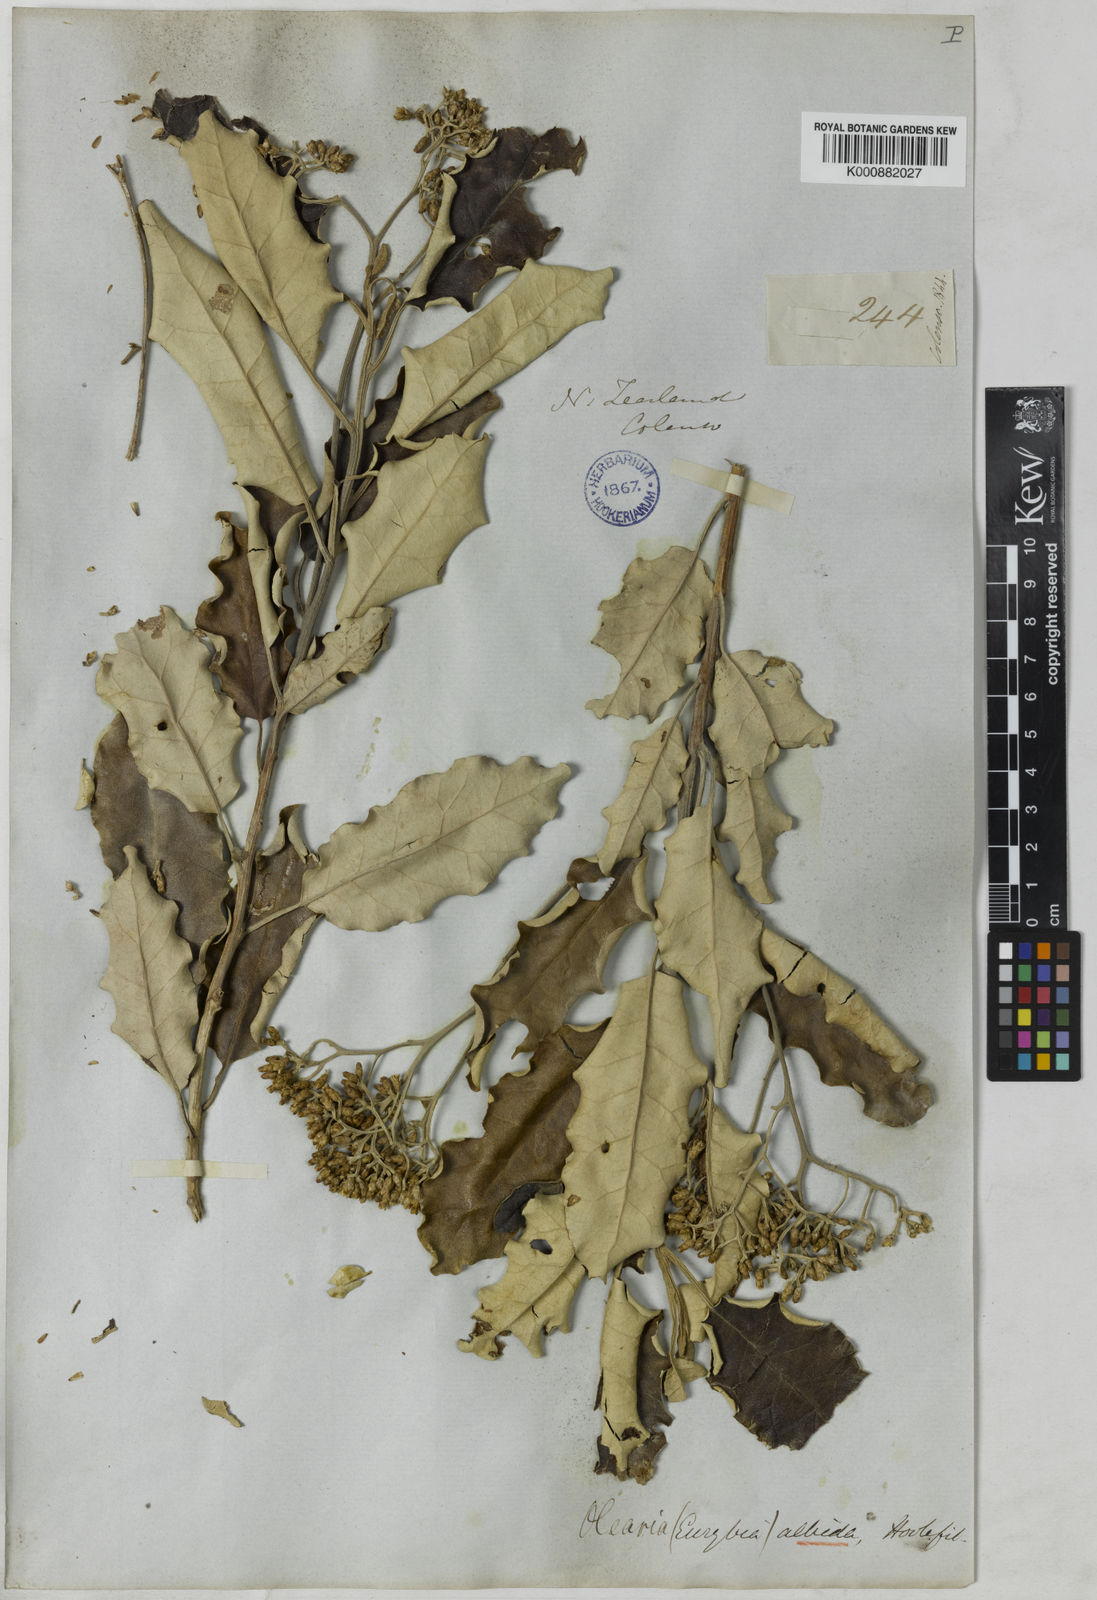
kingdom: Plantae
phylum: Tracheophyta
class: Magnoliopsida
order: Asterales
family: Asteraceae
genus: Olearia
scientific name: Olearia albida
